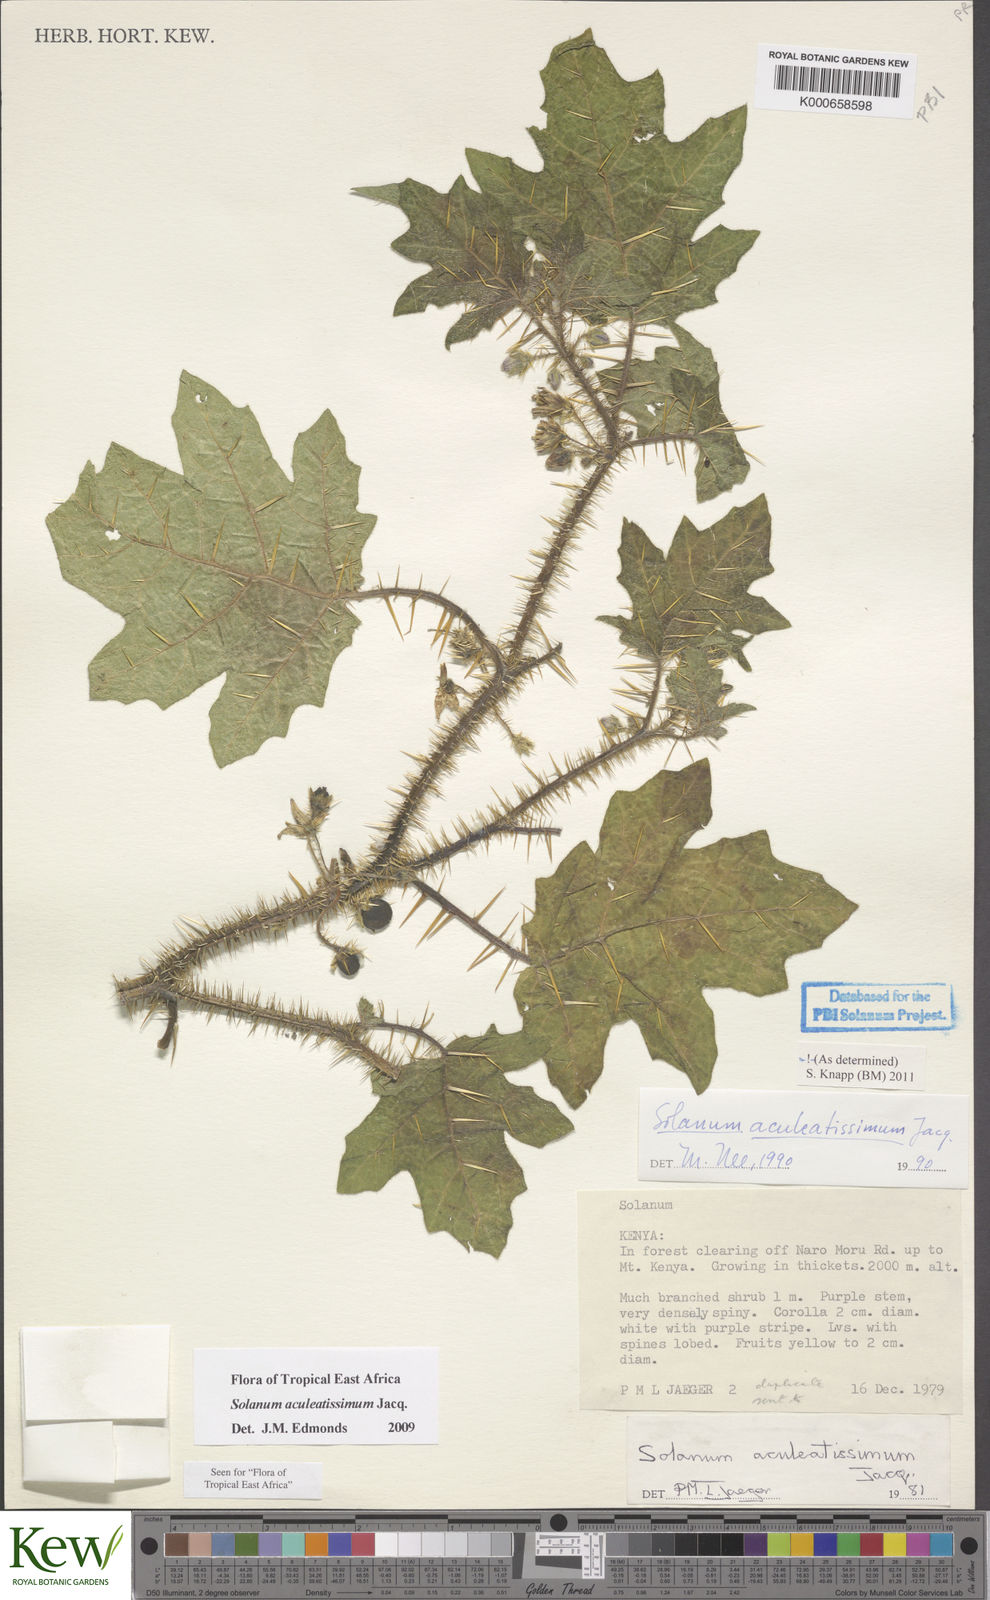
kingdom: Plantae
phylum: Tracheophyta
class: Magnoliopsida
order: Solanales
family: Solanaceae
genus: Solanum
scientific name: Solanum aculeatissimum
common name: Dutch eggplant
